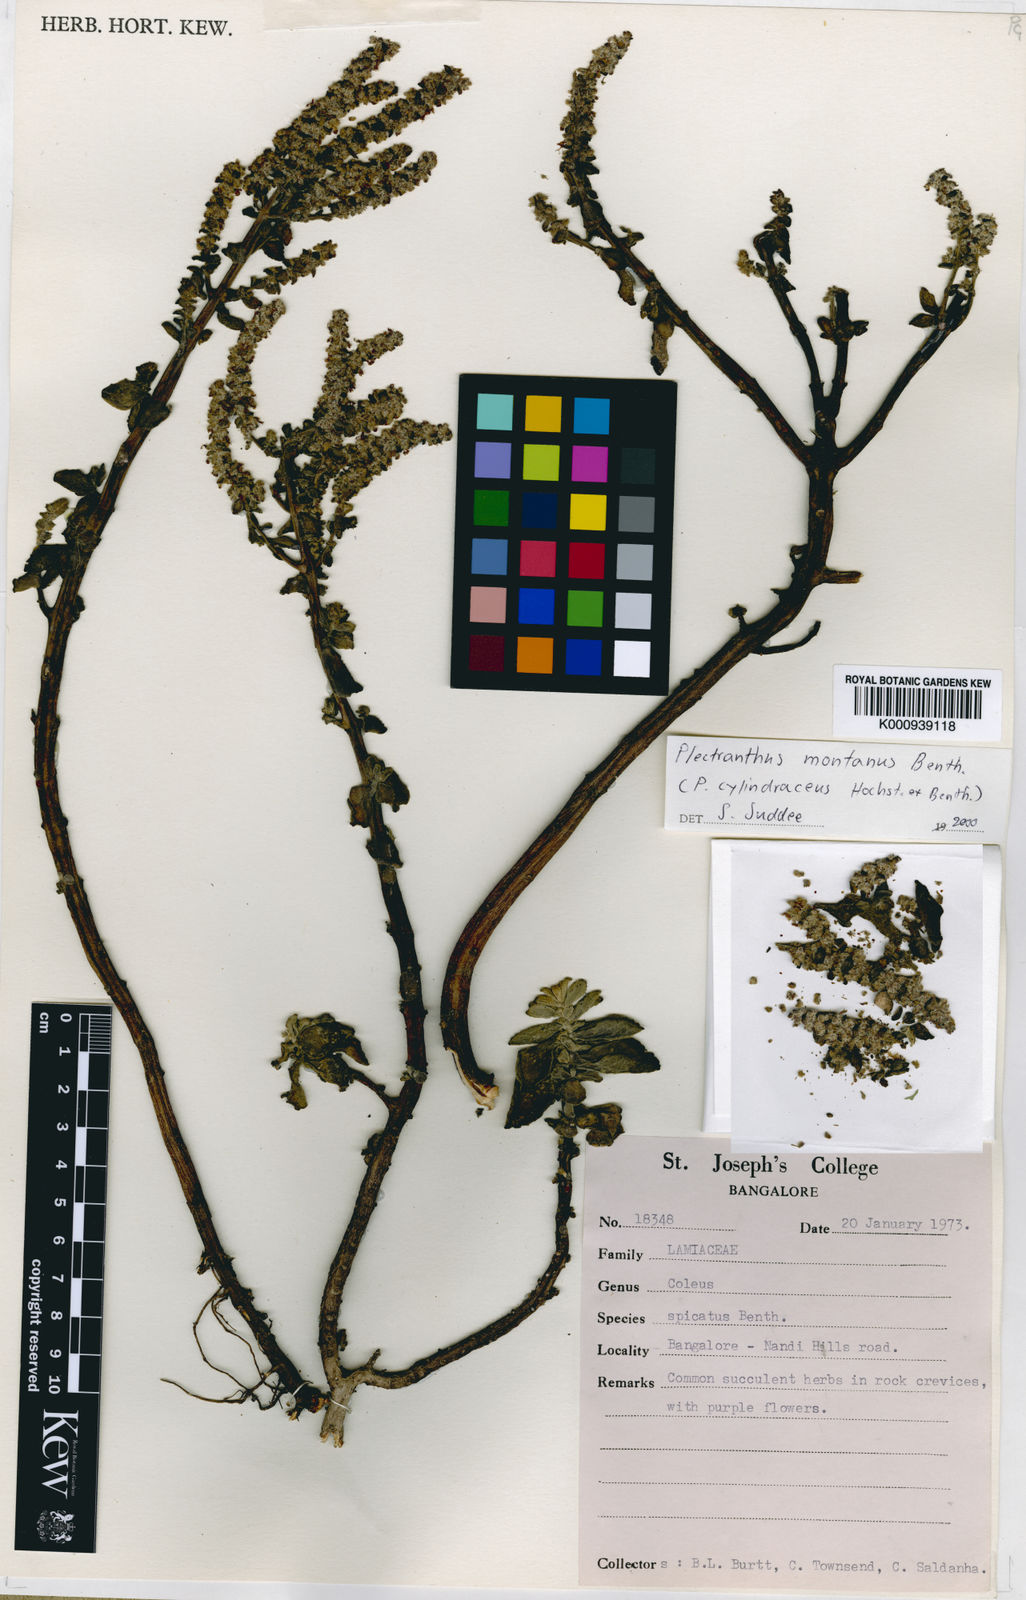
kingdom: Plantae
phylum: Tracheophyta
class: Magnoliopsida
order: Lamiales
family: Lamiaceae
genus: Coleus
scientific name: Coleus cylindraceus
